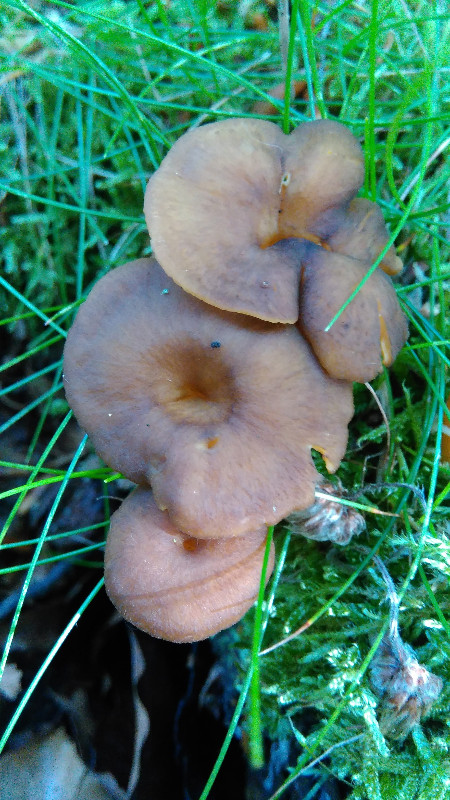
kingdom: Fungi
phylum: Basidiomycota
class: Agaricomycetes
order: Cantharellales
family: Hydnaceae
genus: Craterellus
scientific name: Craterellus tubaeformis
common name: tragt-kantarel
